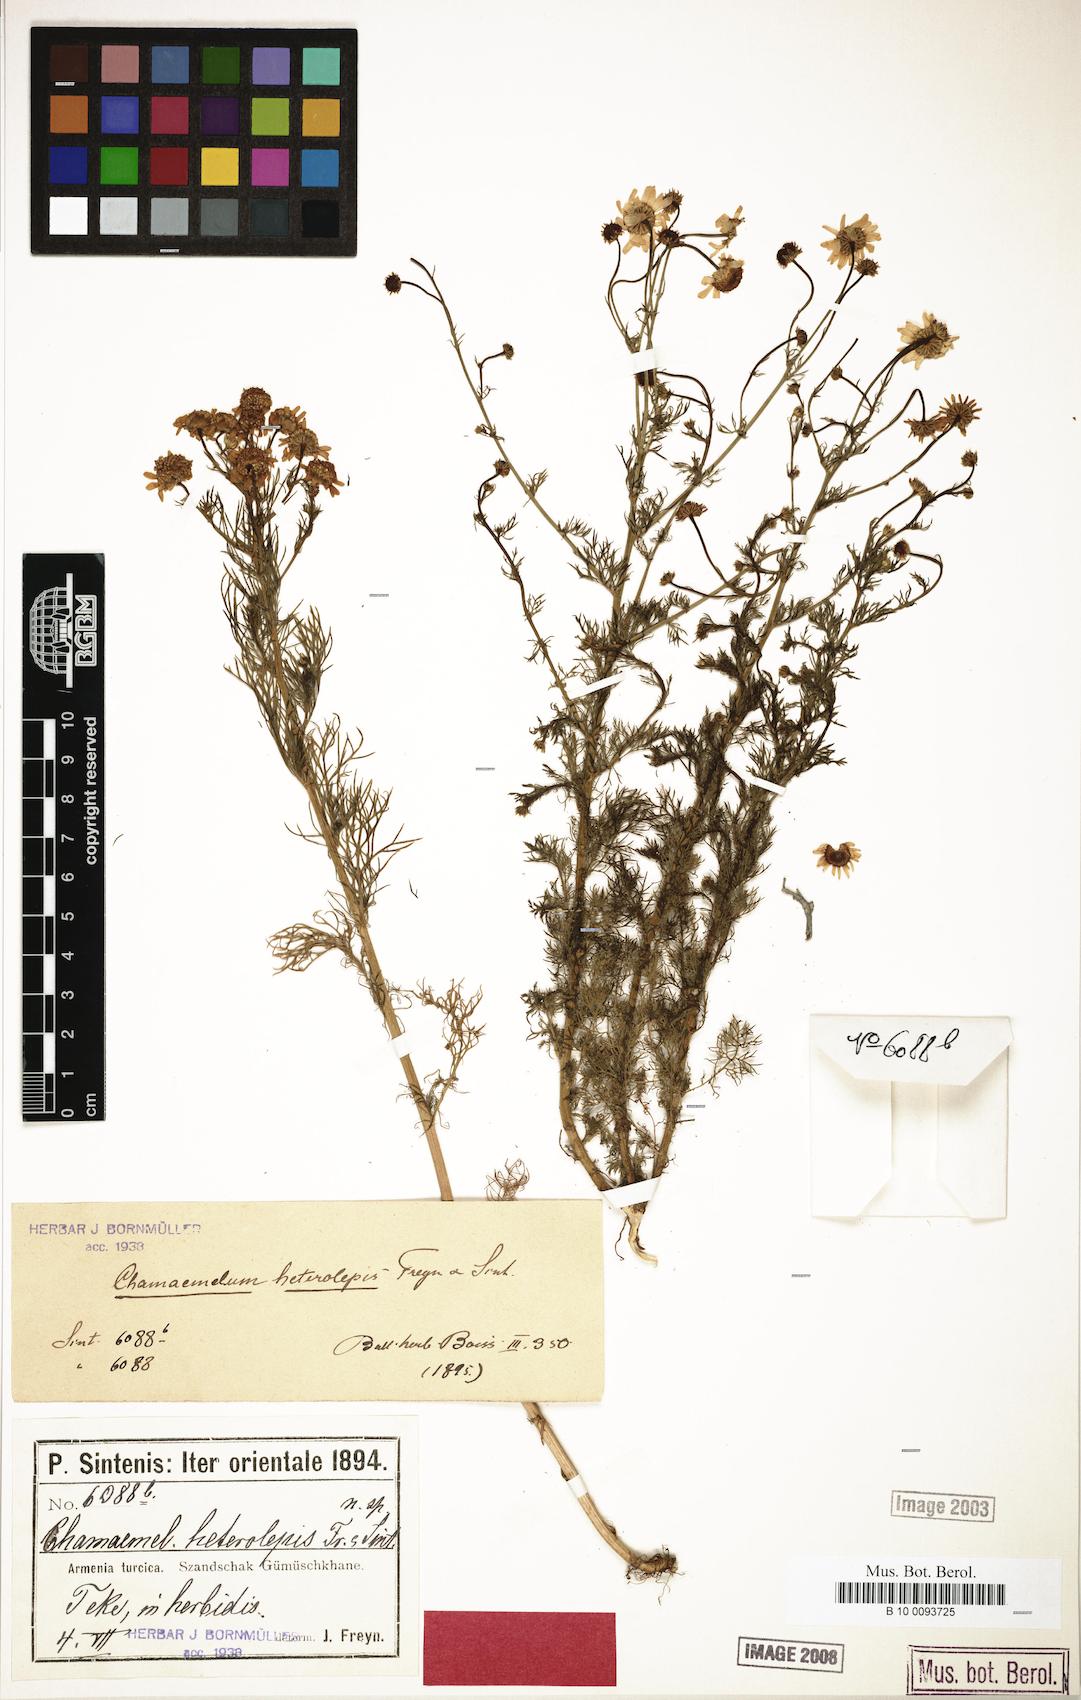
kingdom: Plantae
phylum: Tracheophyta
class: Magnoliopsida
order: Asterales
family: Asteraceae
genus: Tripleurospermum
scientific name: Tripleurospermum heterolepis
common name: Tripleurospermum
